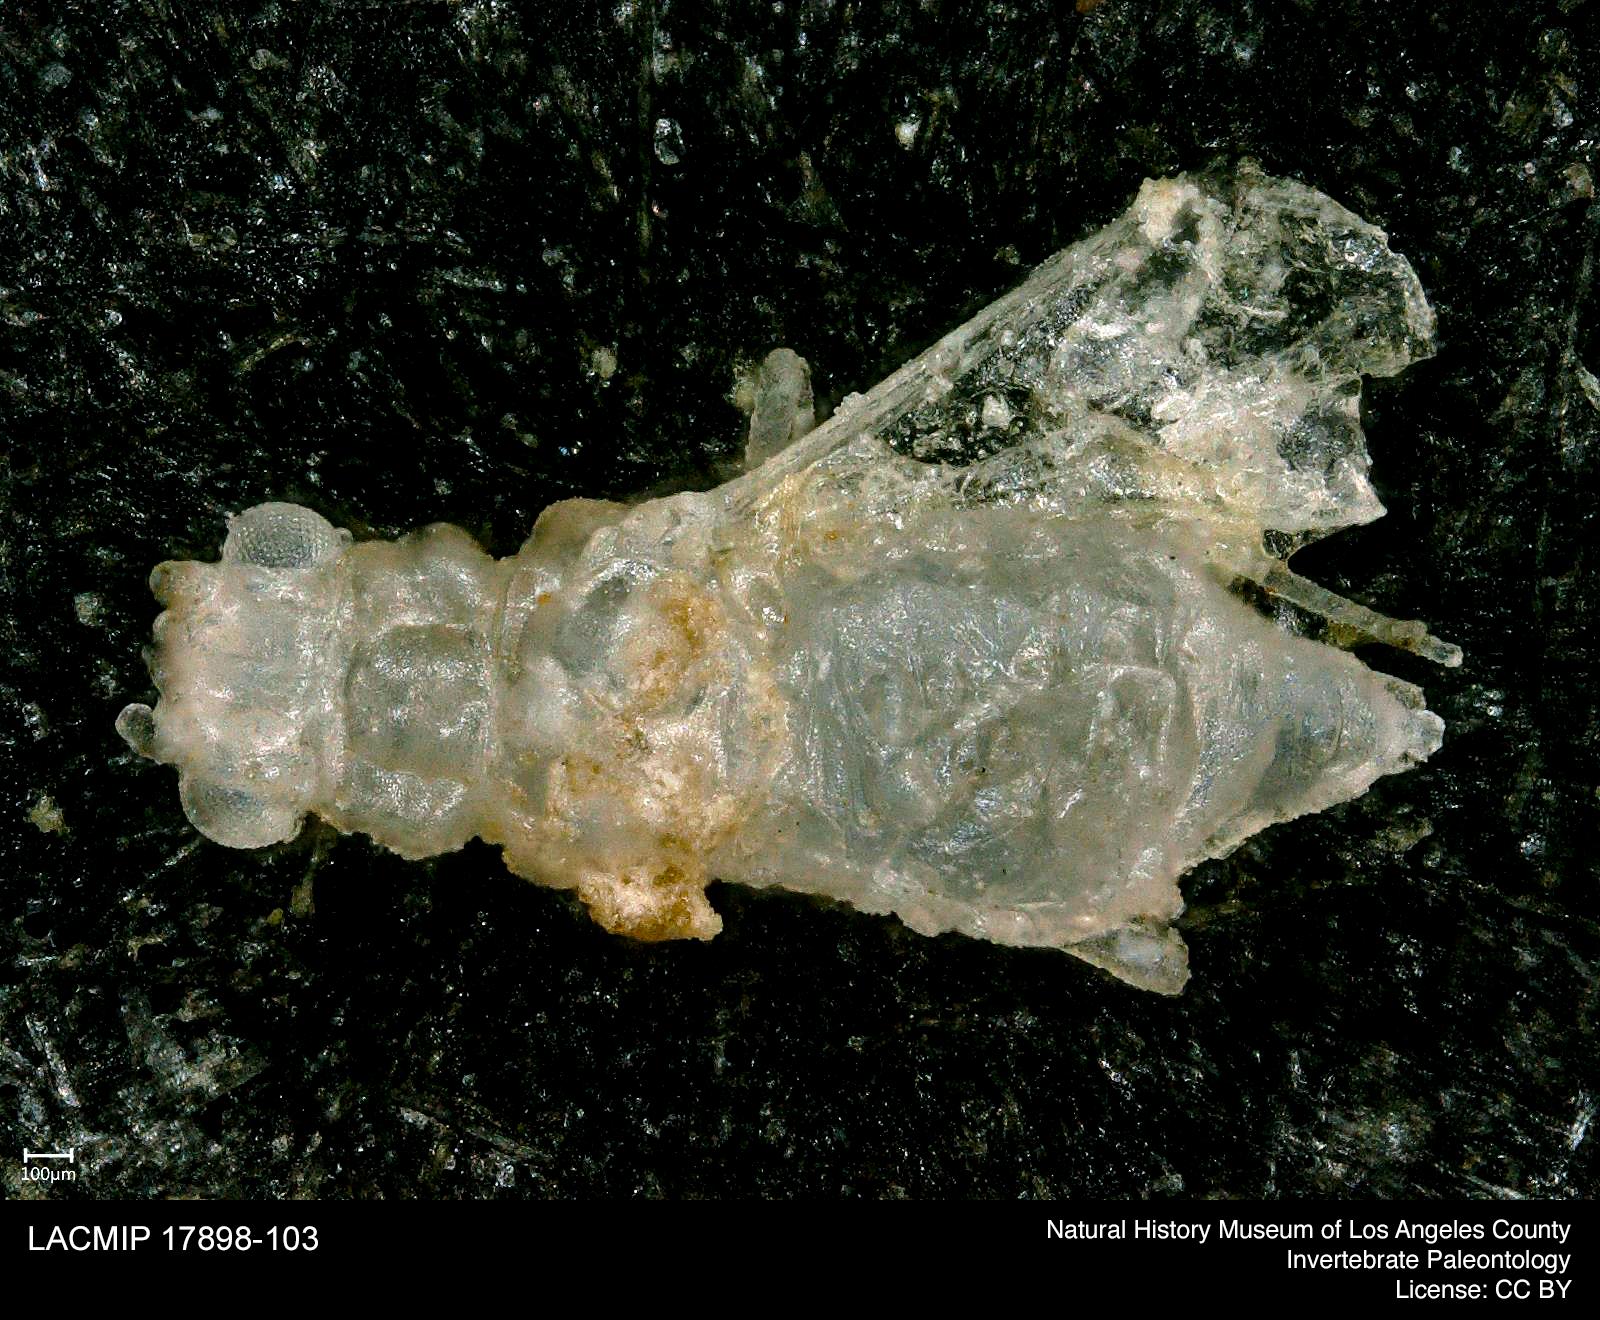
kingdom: Animalia
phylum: Arthropoda
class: Insecta
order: Hemiptera
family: Aphididae
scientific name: Aphididae
